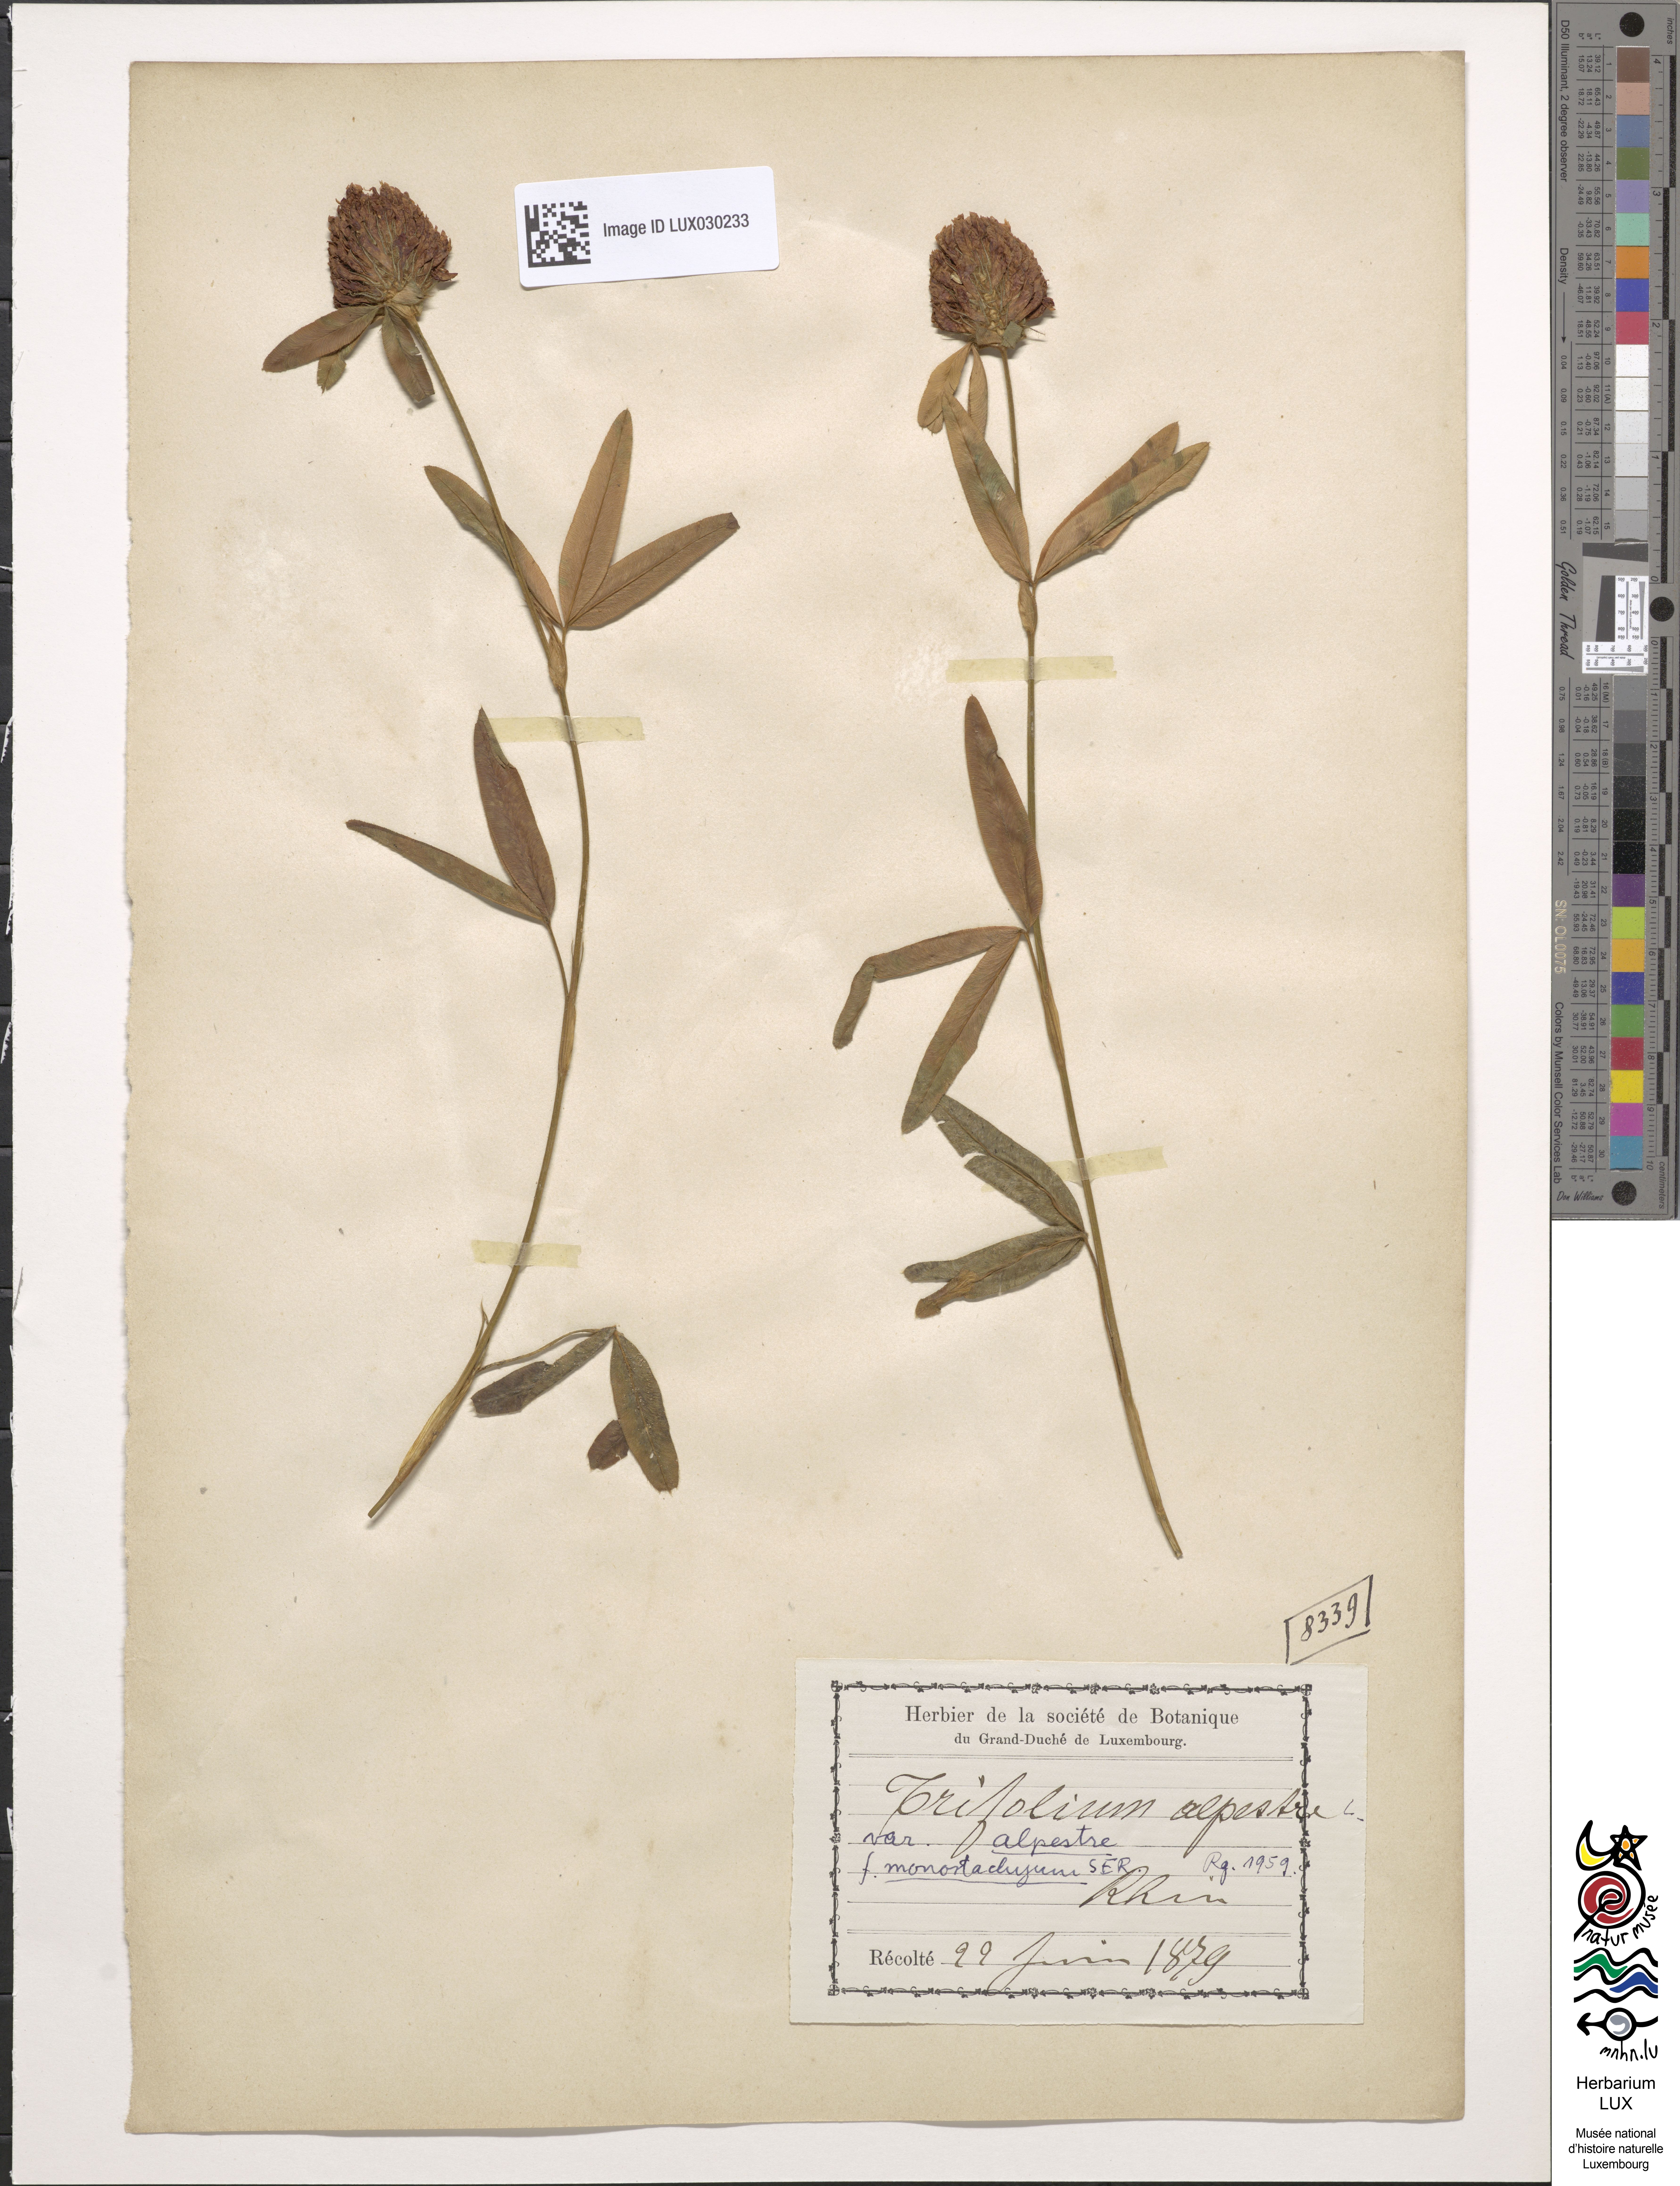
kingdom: Plantae
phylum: Tracheophyta
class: Magnoliopsida
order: Fabales
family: Fabaceae
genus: Trifolium
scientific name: Trifolium alpestre
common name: Owl-head clover
